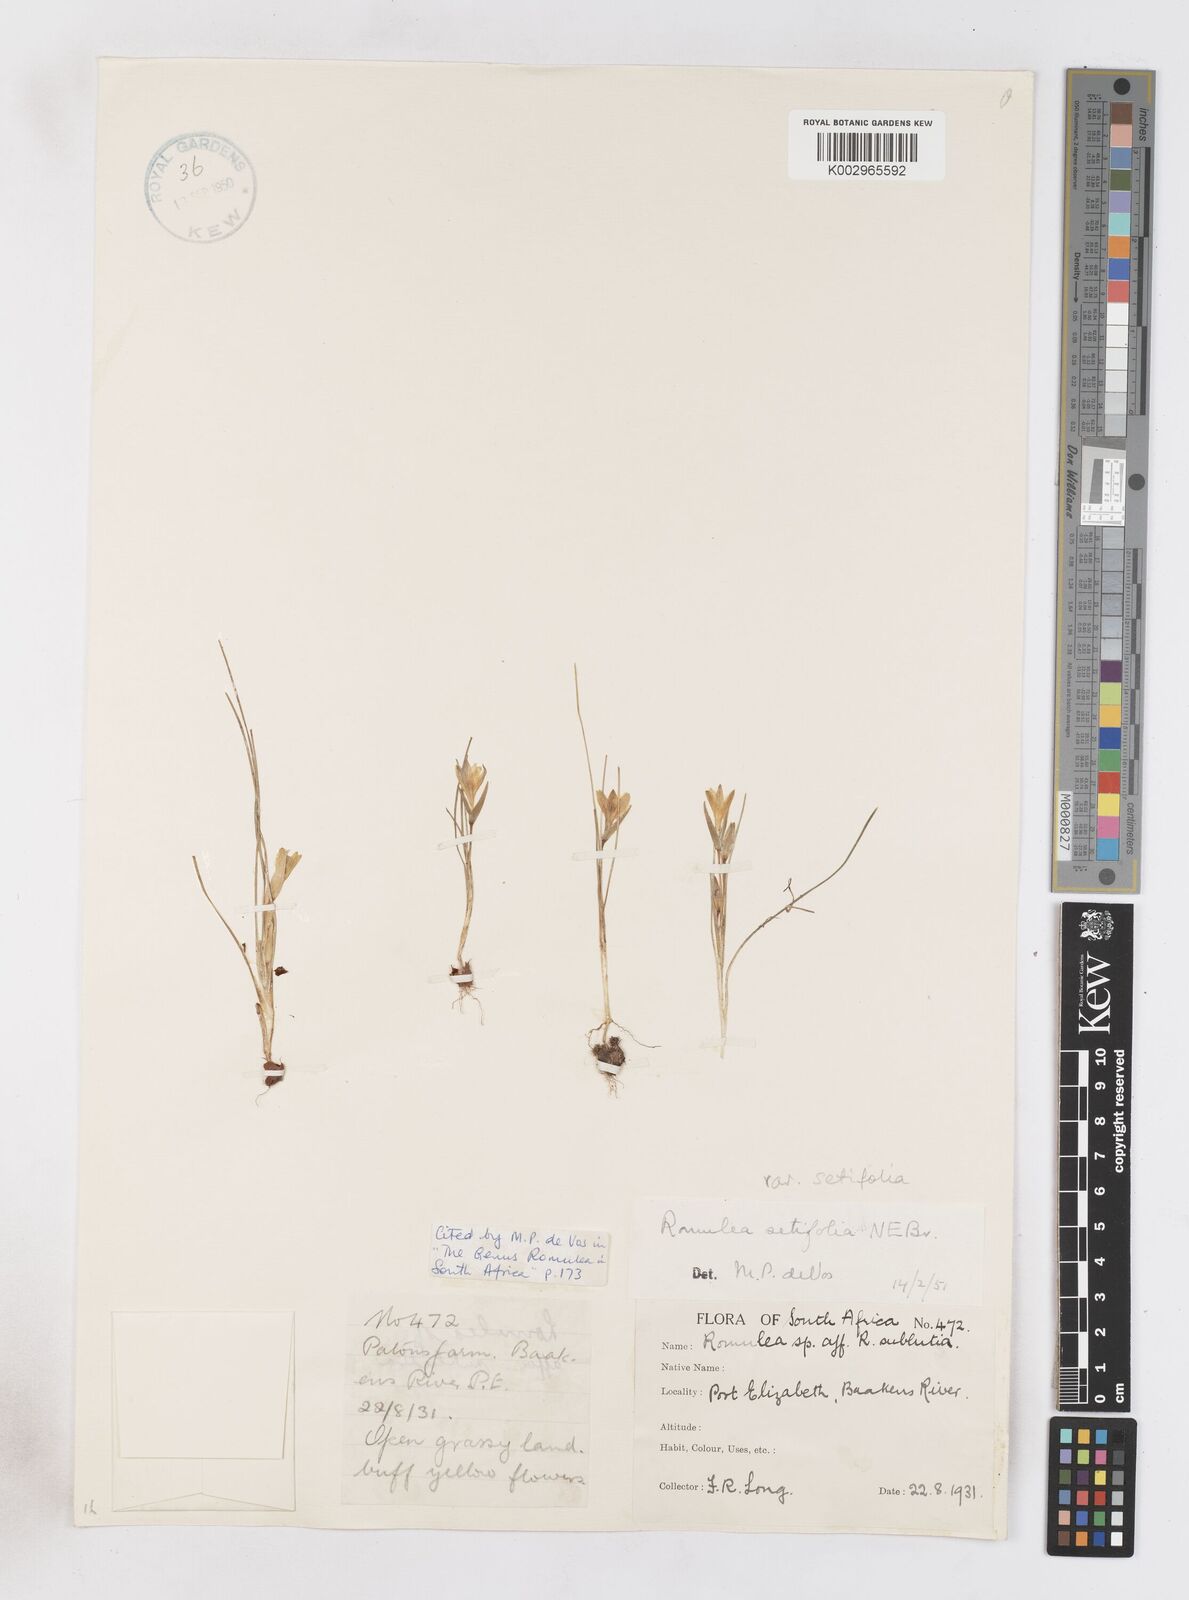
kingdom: Plantae
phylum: Tracheophyta
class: Liliopsida
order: Asparagales
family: Iridaceae
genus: Romulea
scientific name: Romulea setifolia
